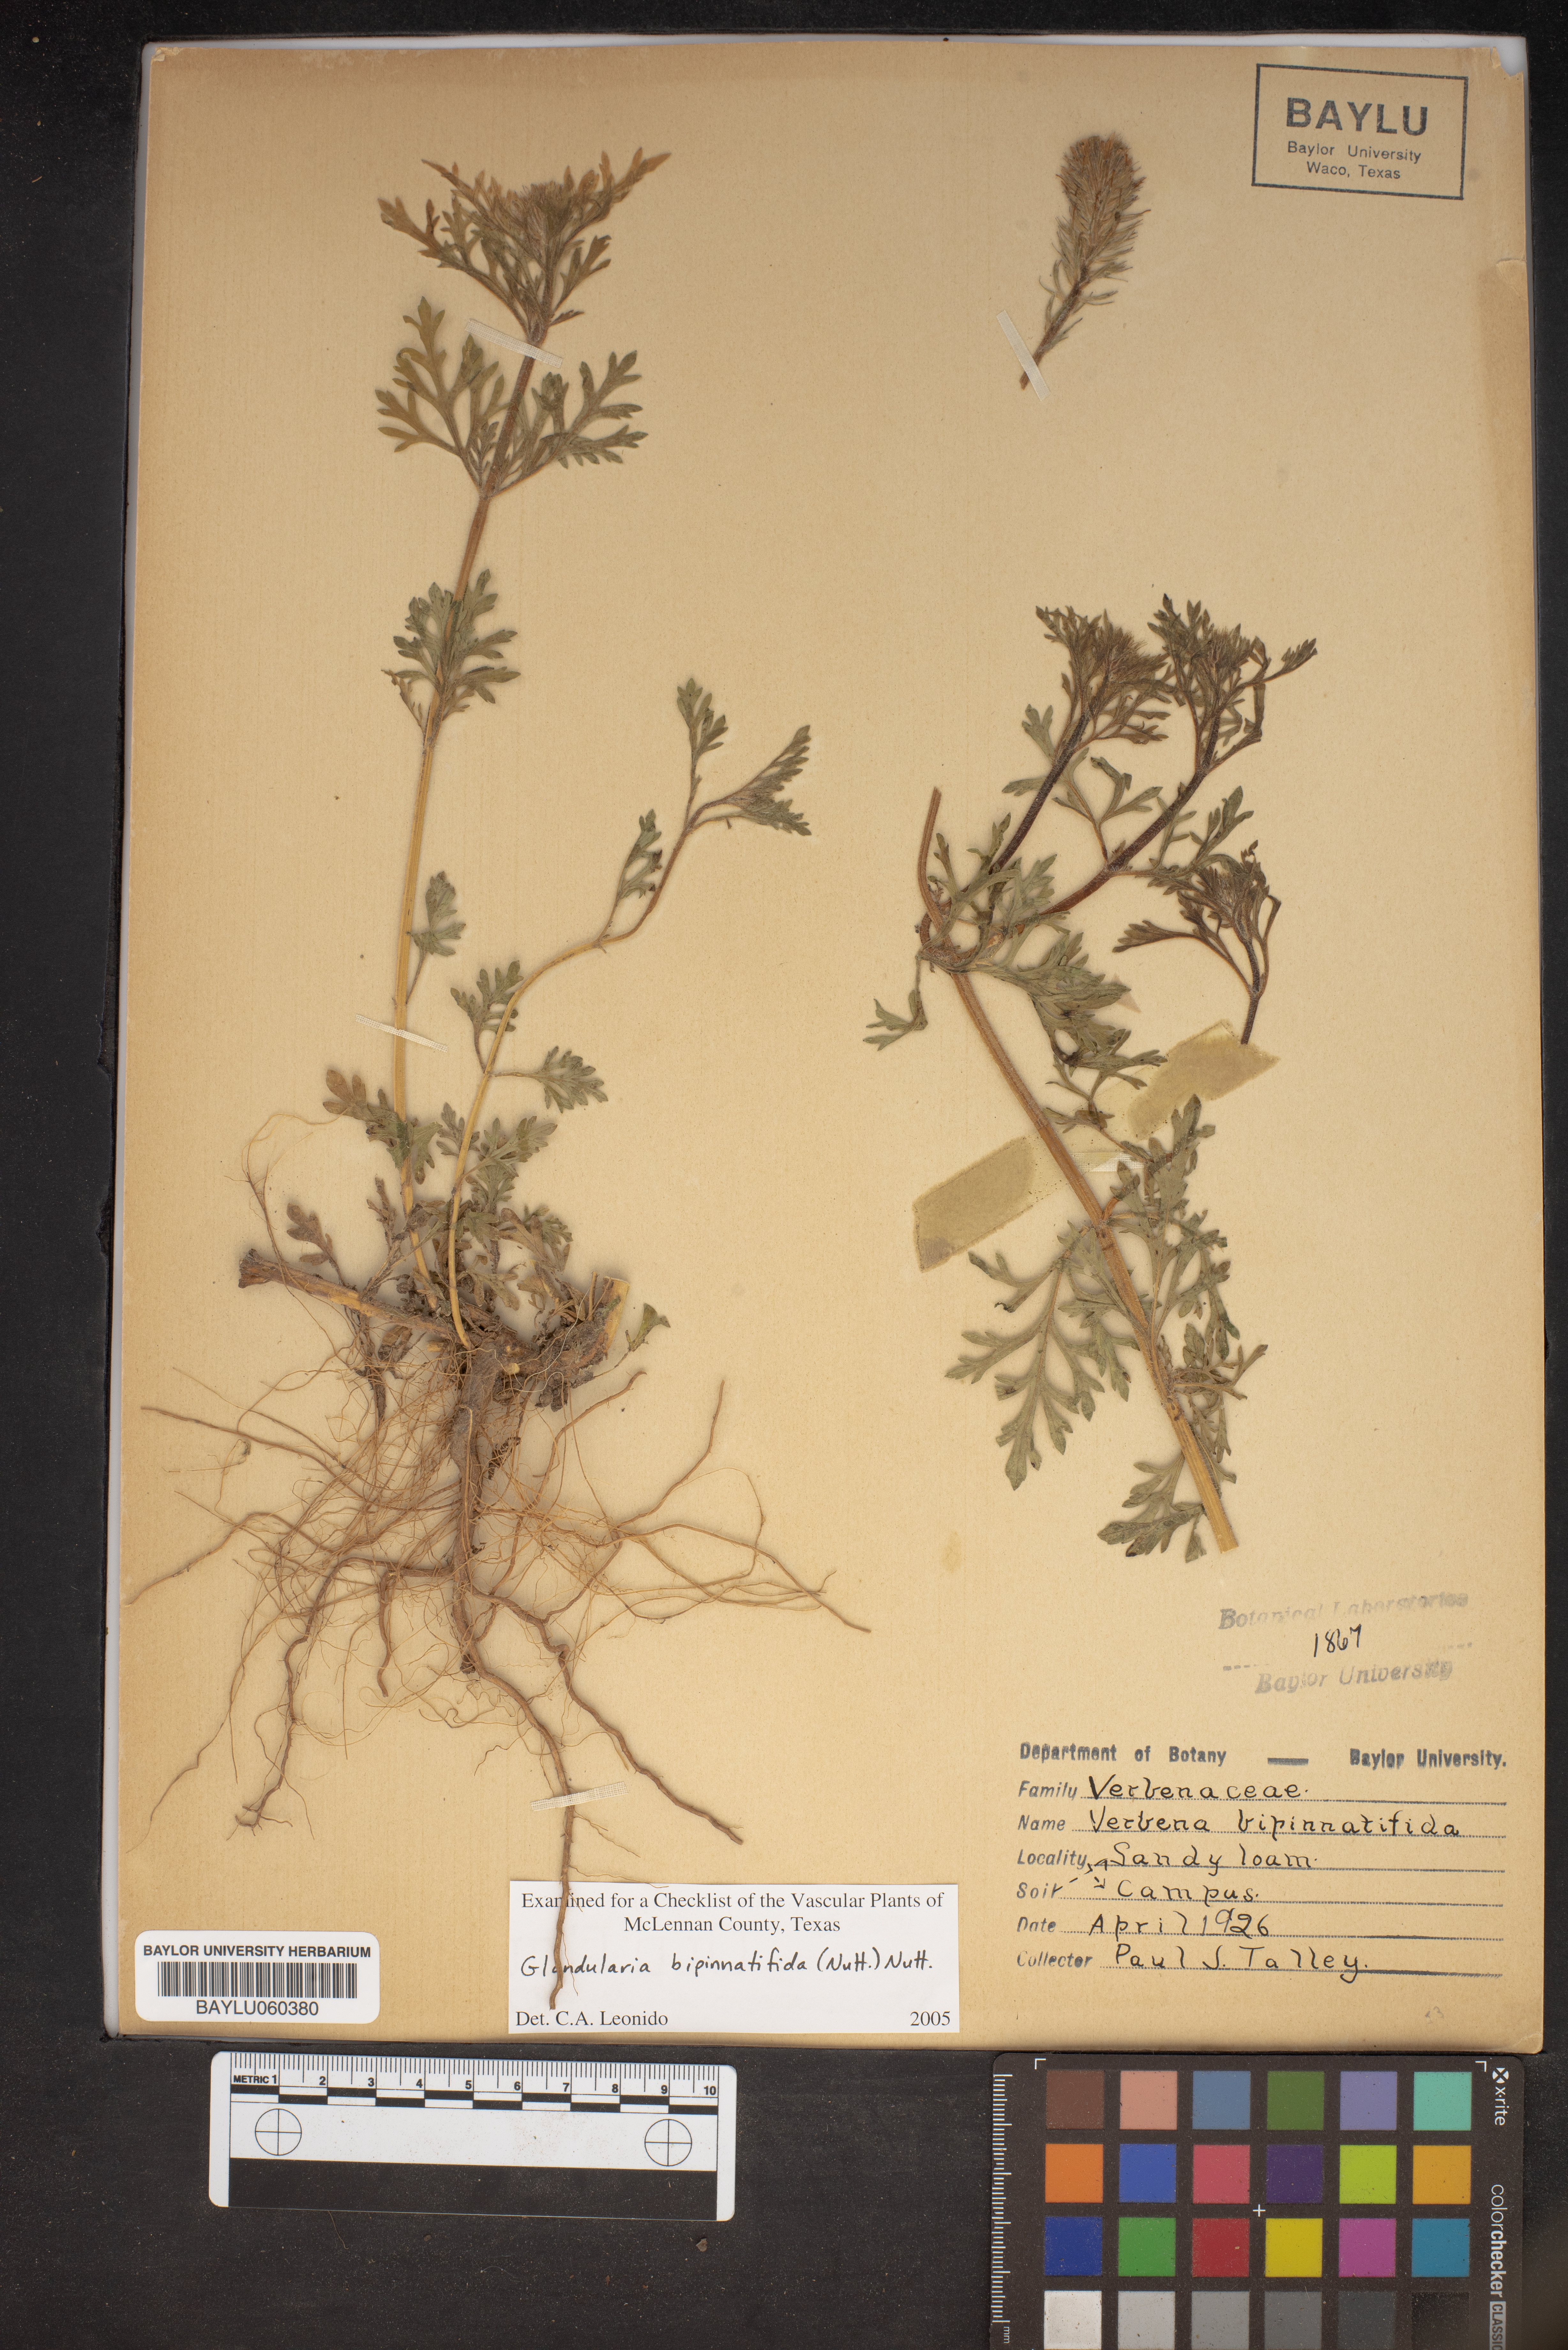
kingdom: Plantae
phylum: Tracheophyta
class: Magnoliopsida
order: Lamiales
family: Verbenaceae
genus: Verbena
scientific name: Verbena bipinnatifida
